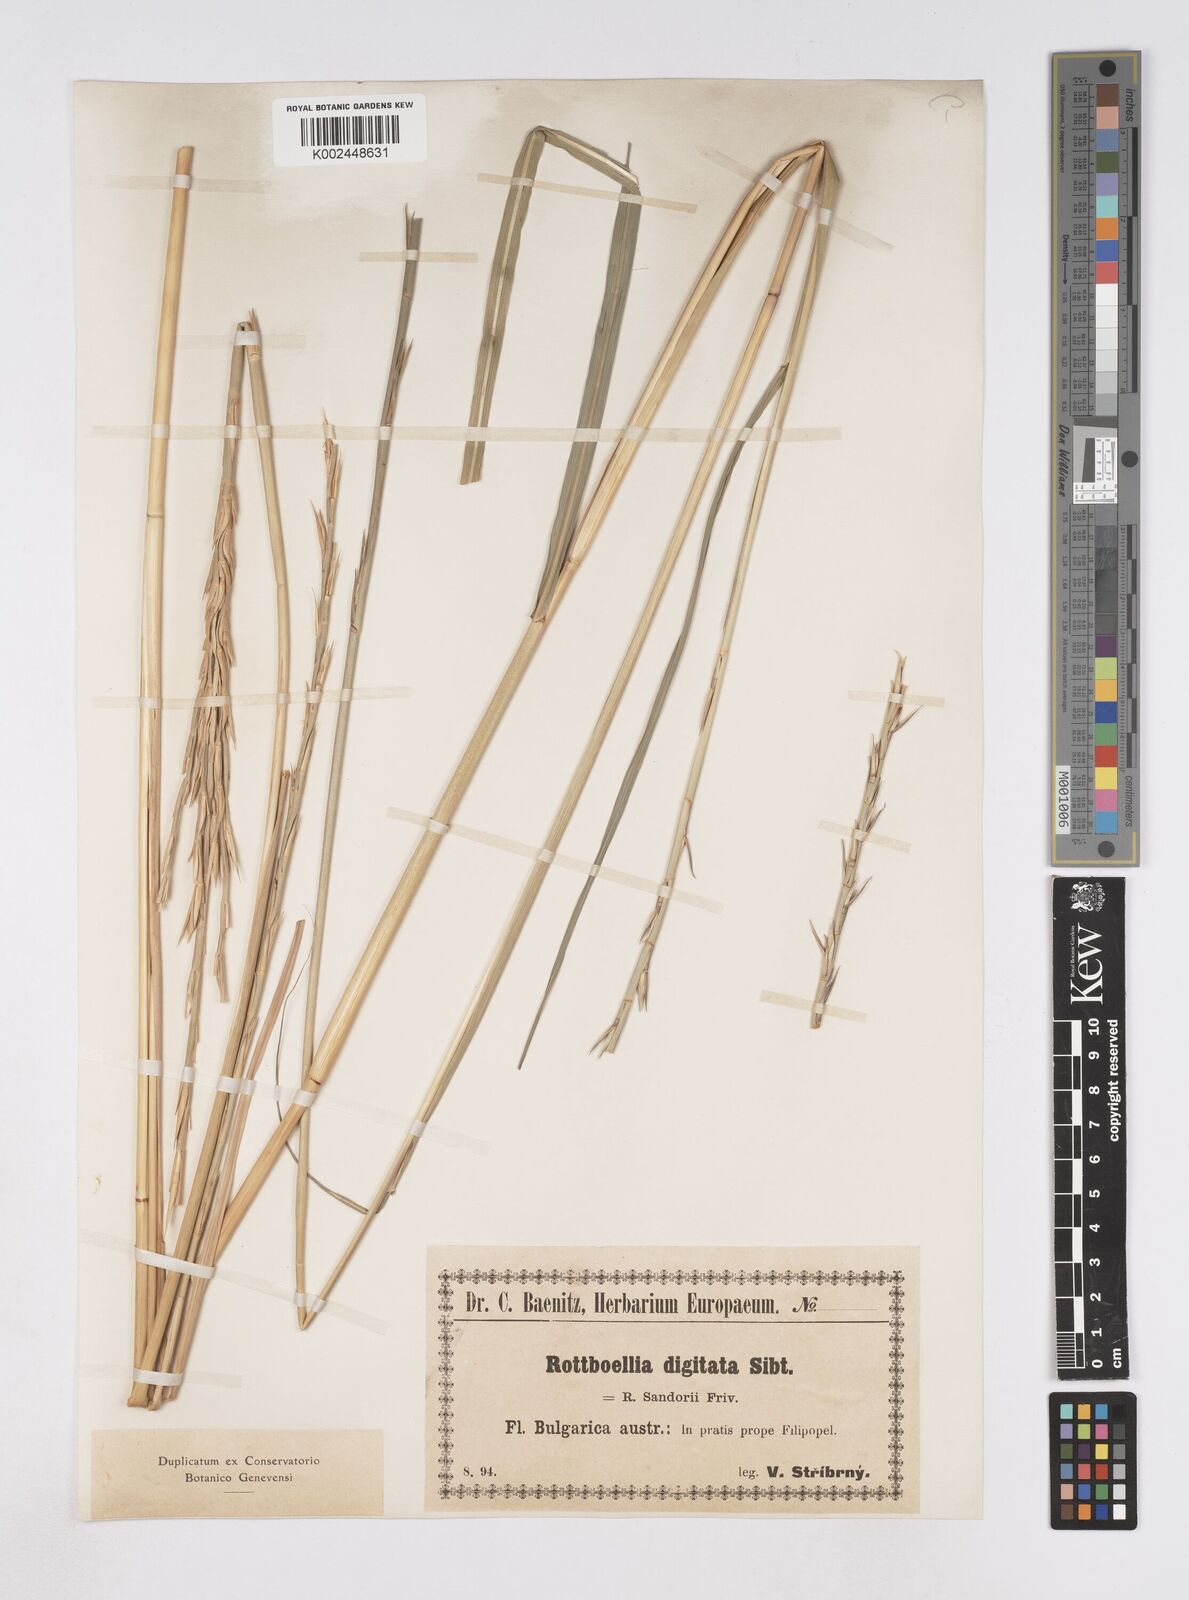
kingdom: Plantae
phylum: Tracheophyta
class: Liliopsida
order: Poales
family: Poaceae
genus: Phacelurus
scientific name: Phacelurus digitatus
